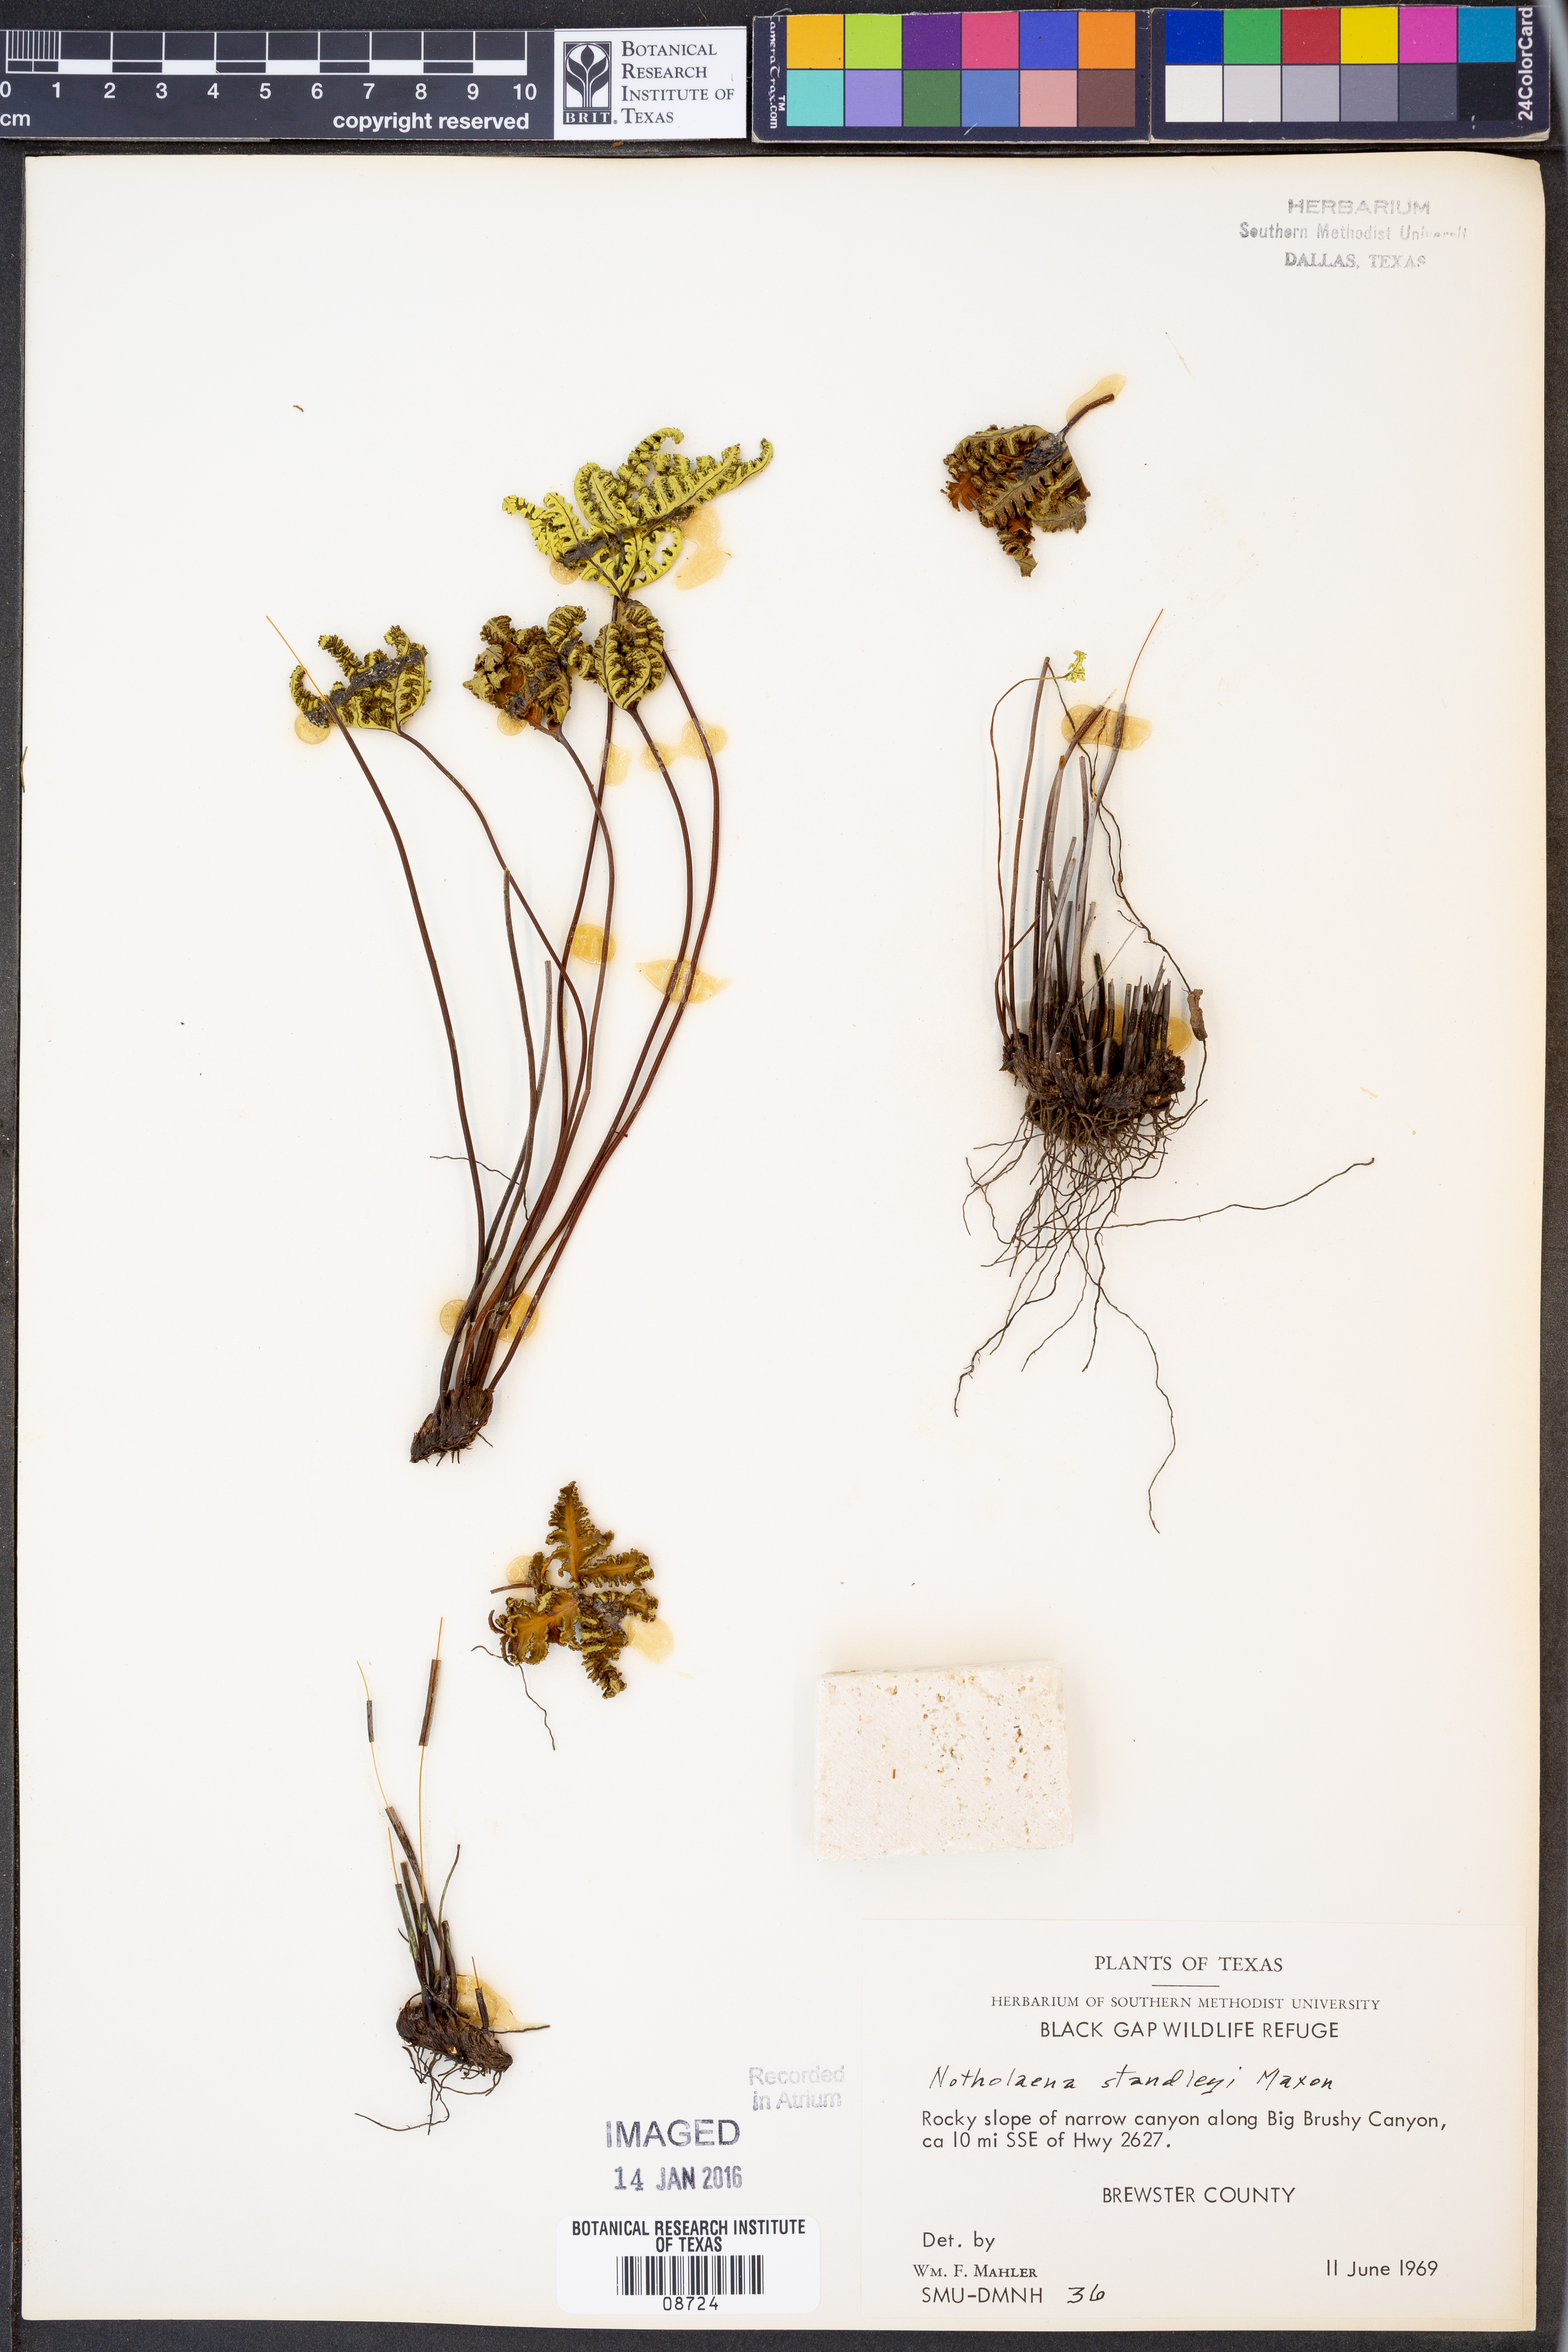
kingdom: Plantae
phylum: Tracheophyta
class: Polypodiopsida
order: Polypodiales
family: Pteridaceae
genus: Notholaena
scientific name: Notholaena standleyi
